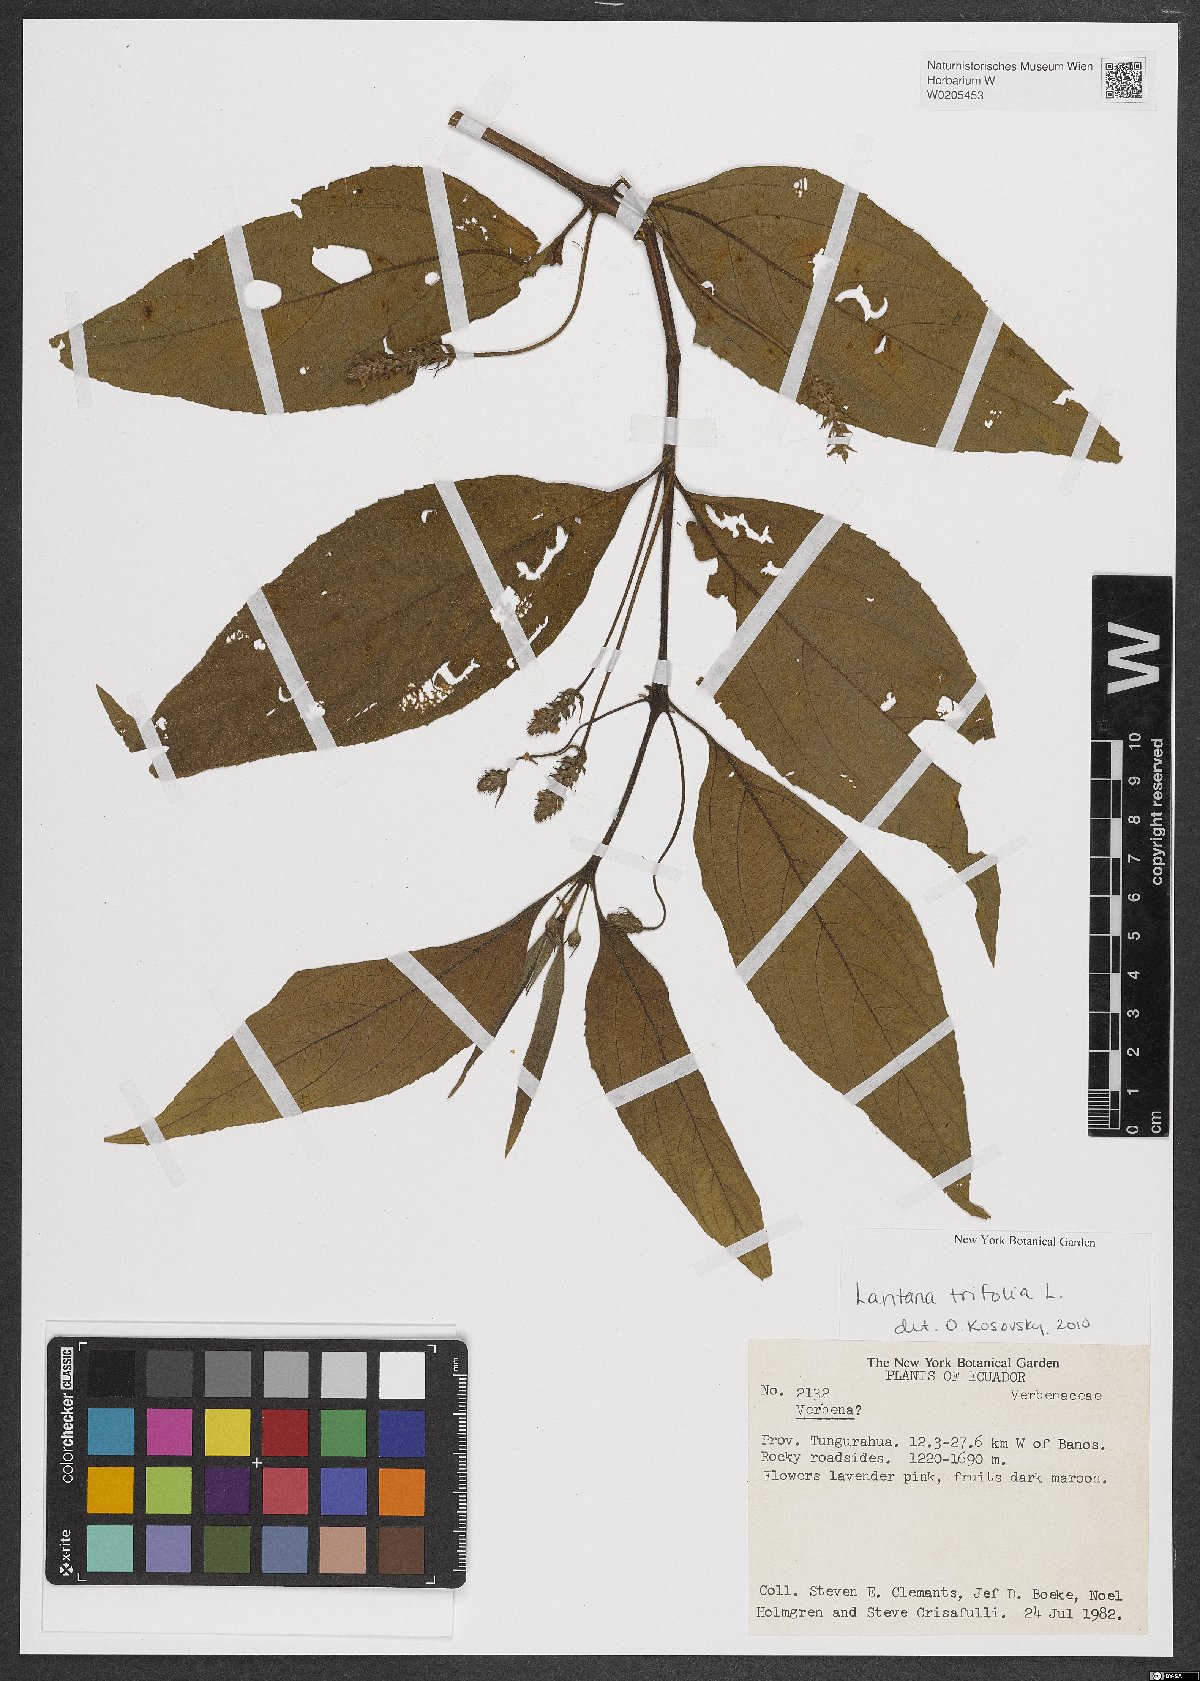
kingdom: Plantae
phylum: Tracheophyta
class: Magnoliopsida
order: Lamiales
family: Verbenaceae
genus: Lantana
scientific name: Lantana trifolia
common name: Sweet-sage
